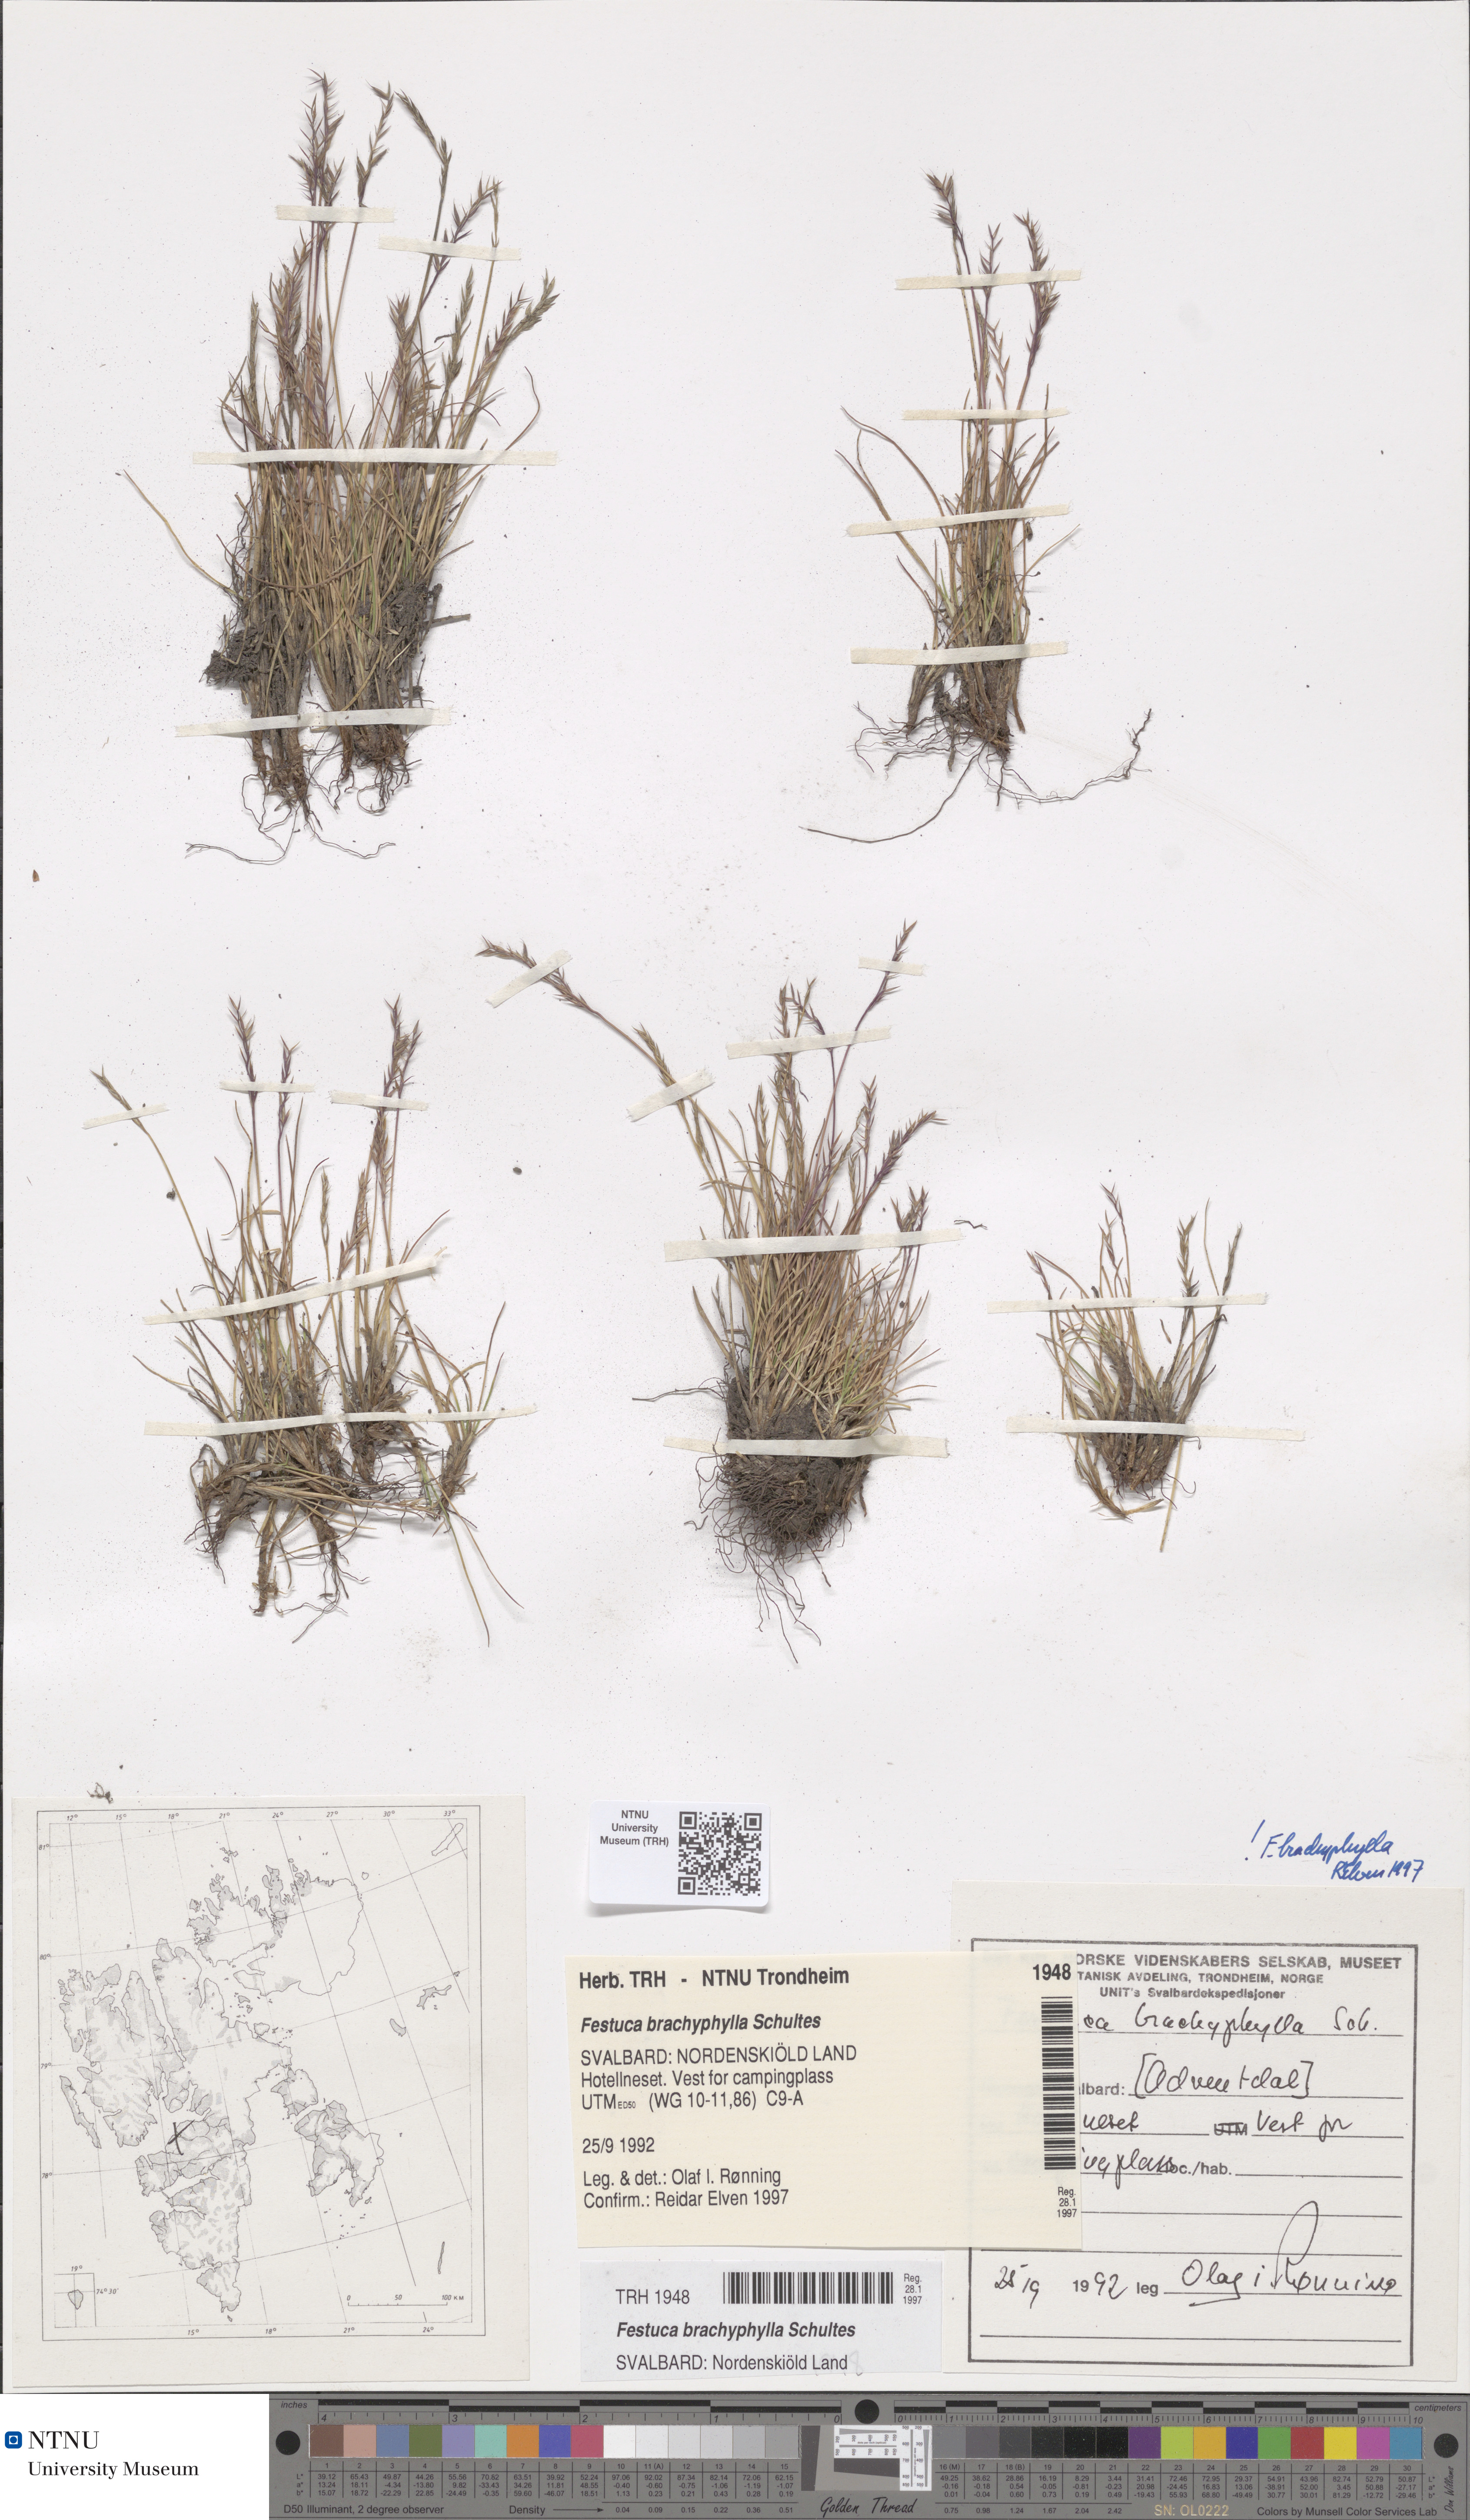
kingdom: Plantae
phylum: Tracheophyta
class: Liliopsida
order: Poales
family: Poaceae
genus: Festuca
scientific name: Festuca brachyphylla
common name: Alpine fescue
